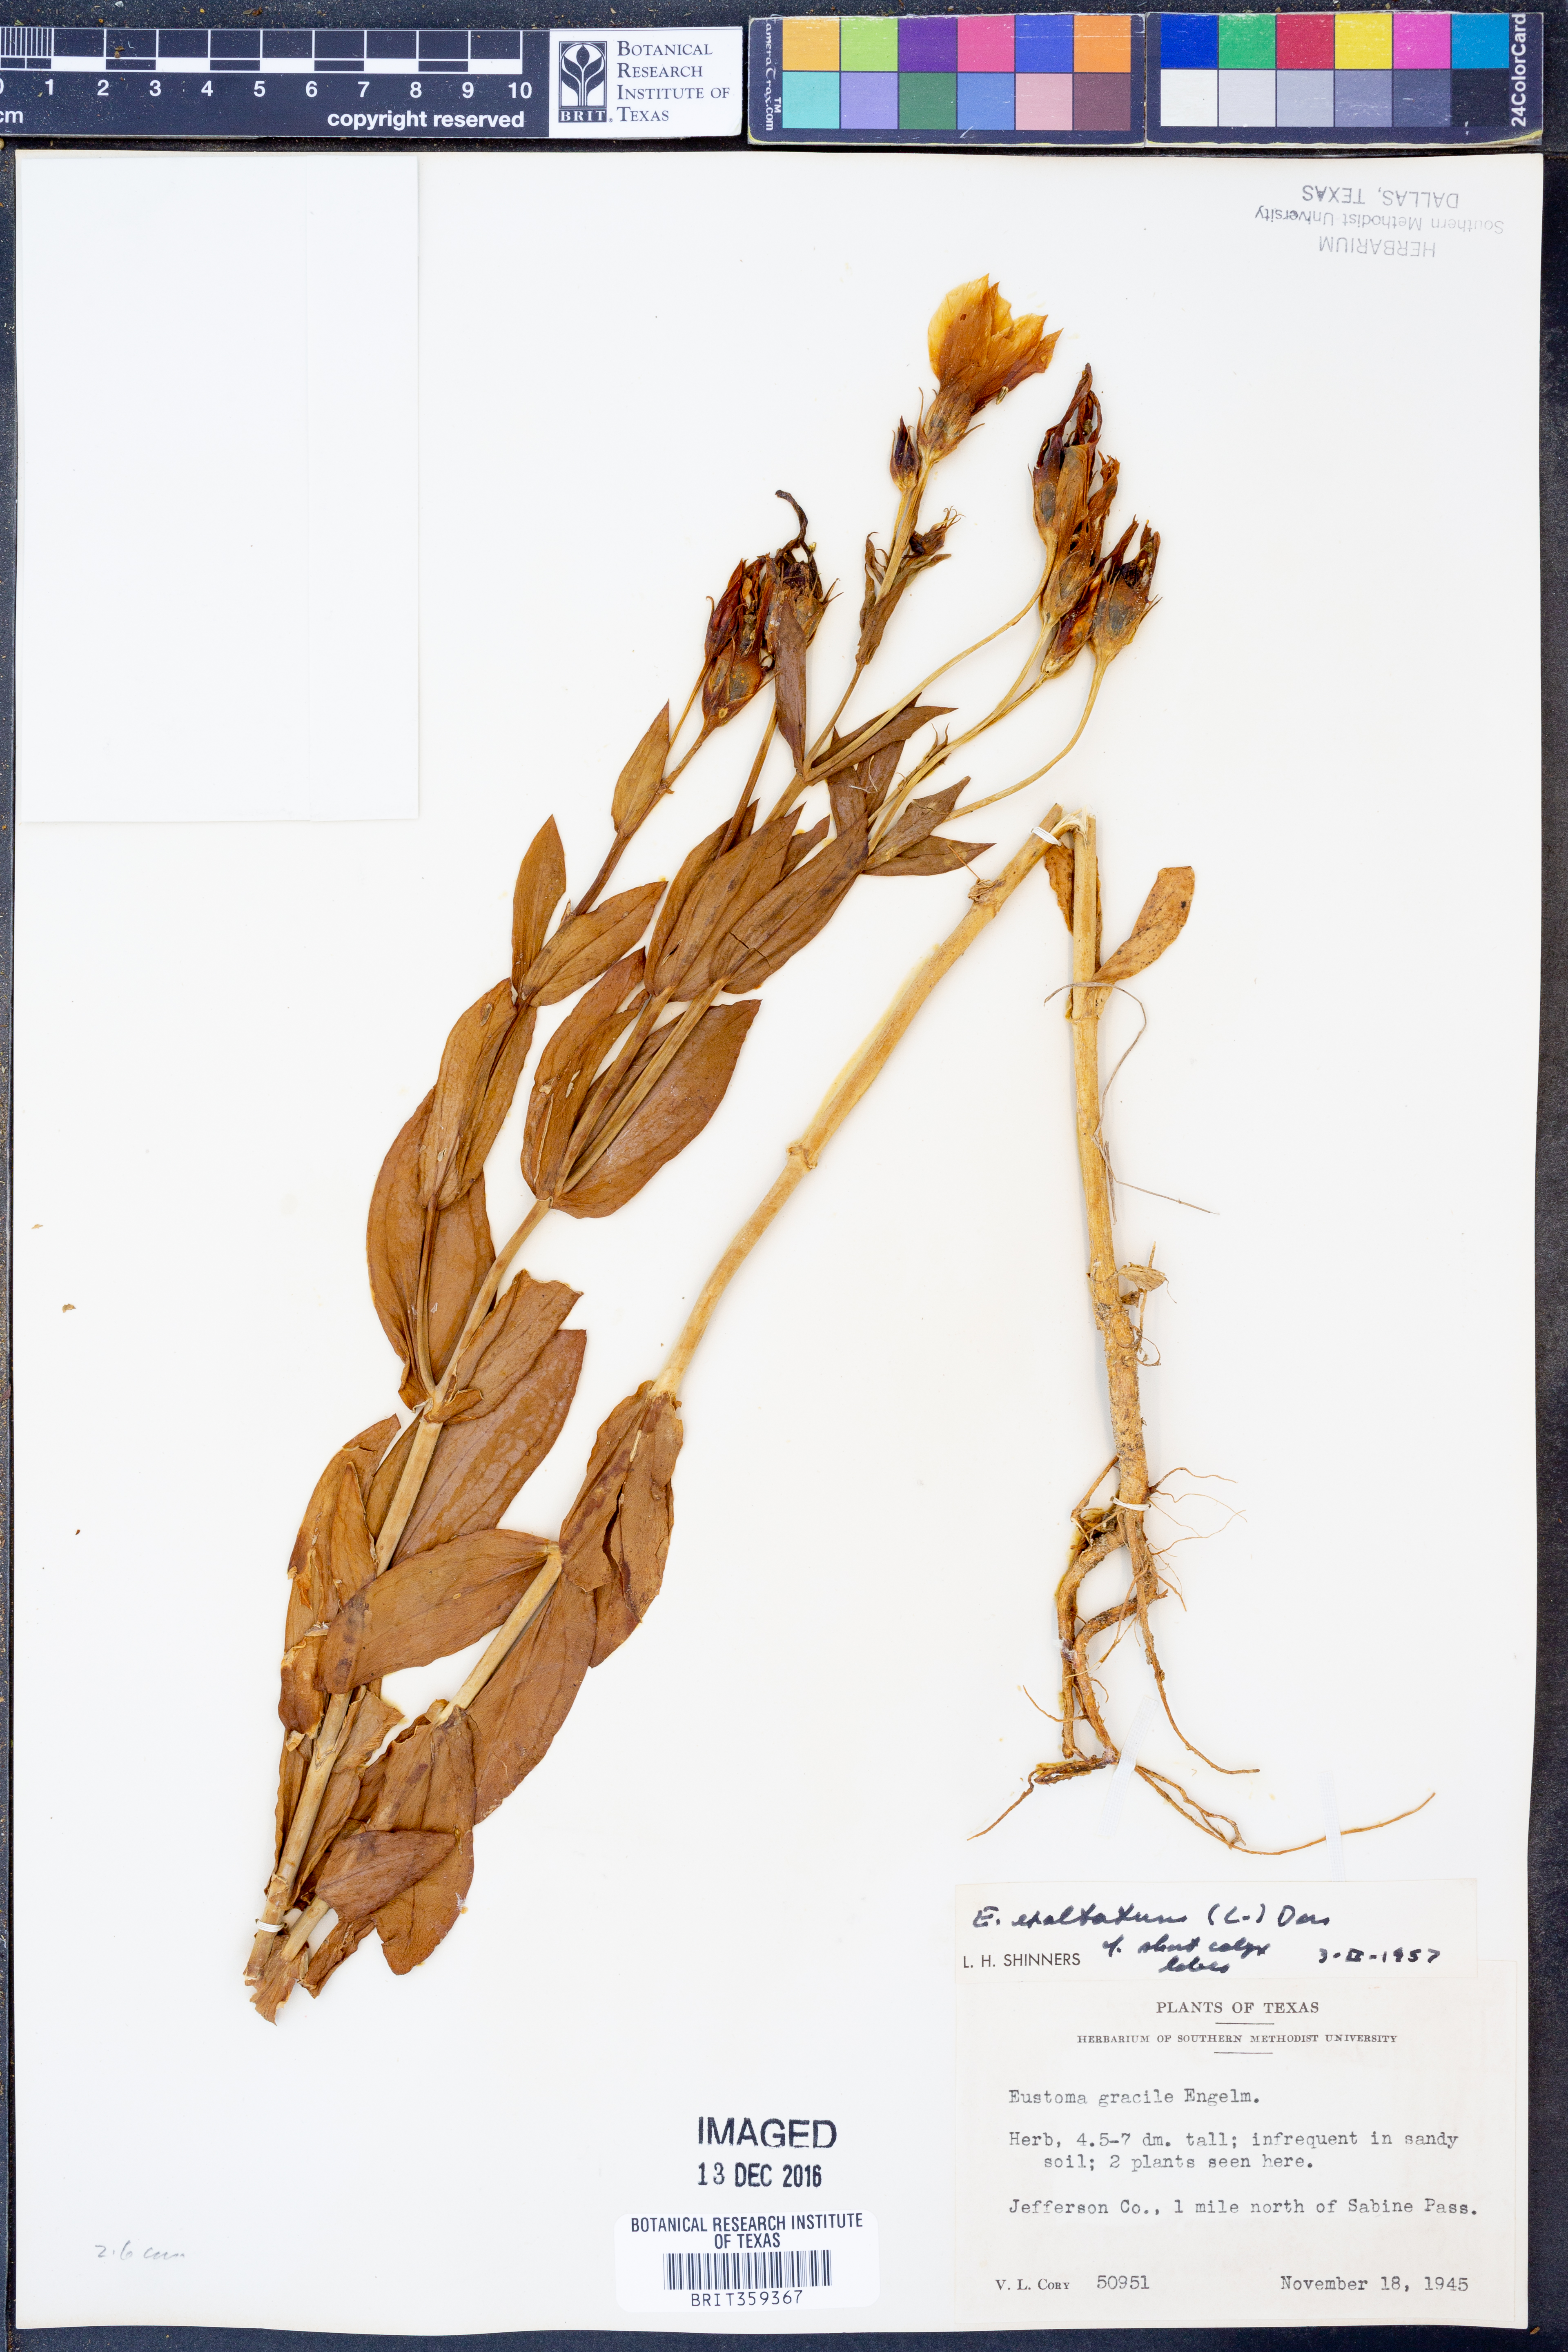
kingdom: Plantae
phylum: Tracheophyta
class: Magnoliopsida
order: Gentianales
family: Gentianaceae
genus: Eustoma
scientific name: Eustoma exaltatum
